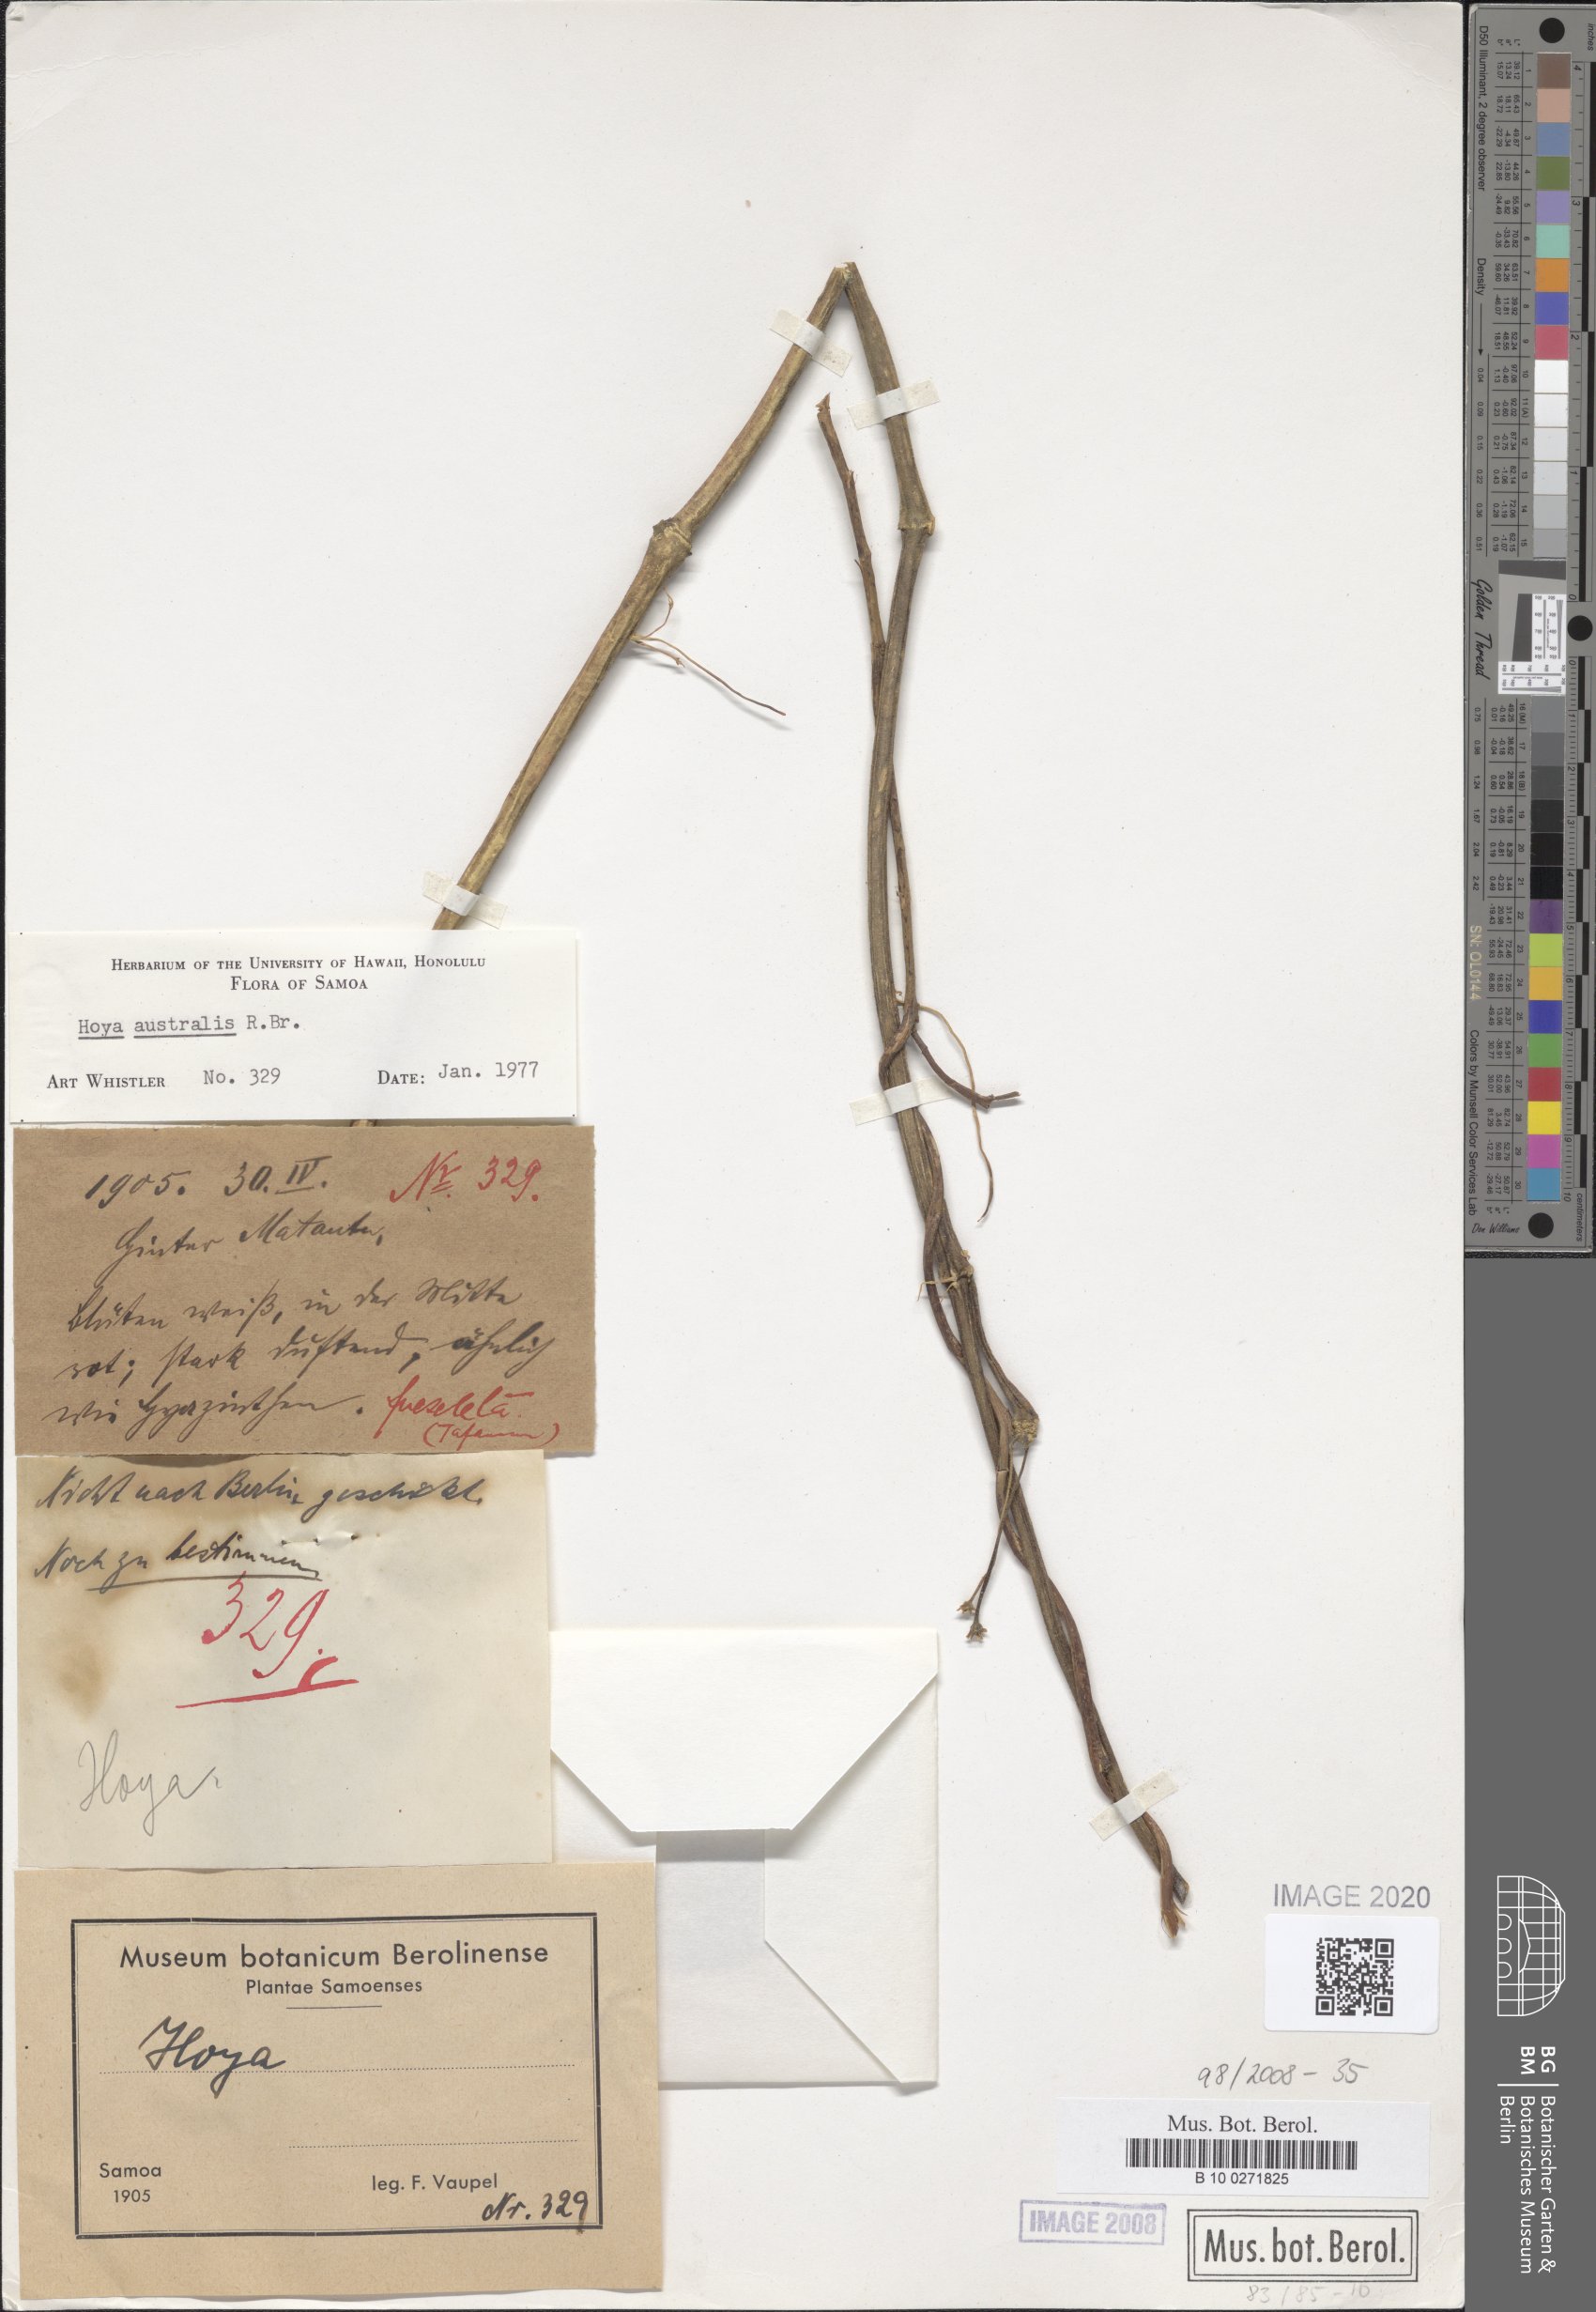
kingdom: Plantae
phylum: Tracheophyta
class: Magnoliopsida
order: Gentianales
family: Apocynaceae
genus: Hoya
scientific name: Hoya australis
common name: Wax flower
